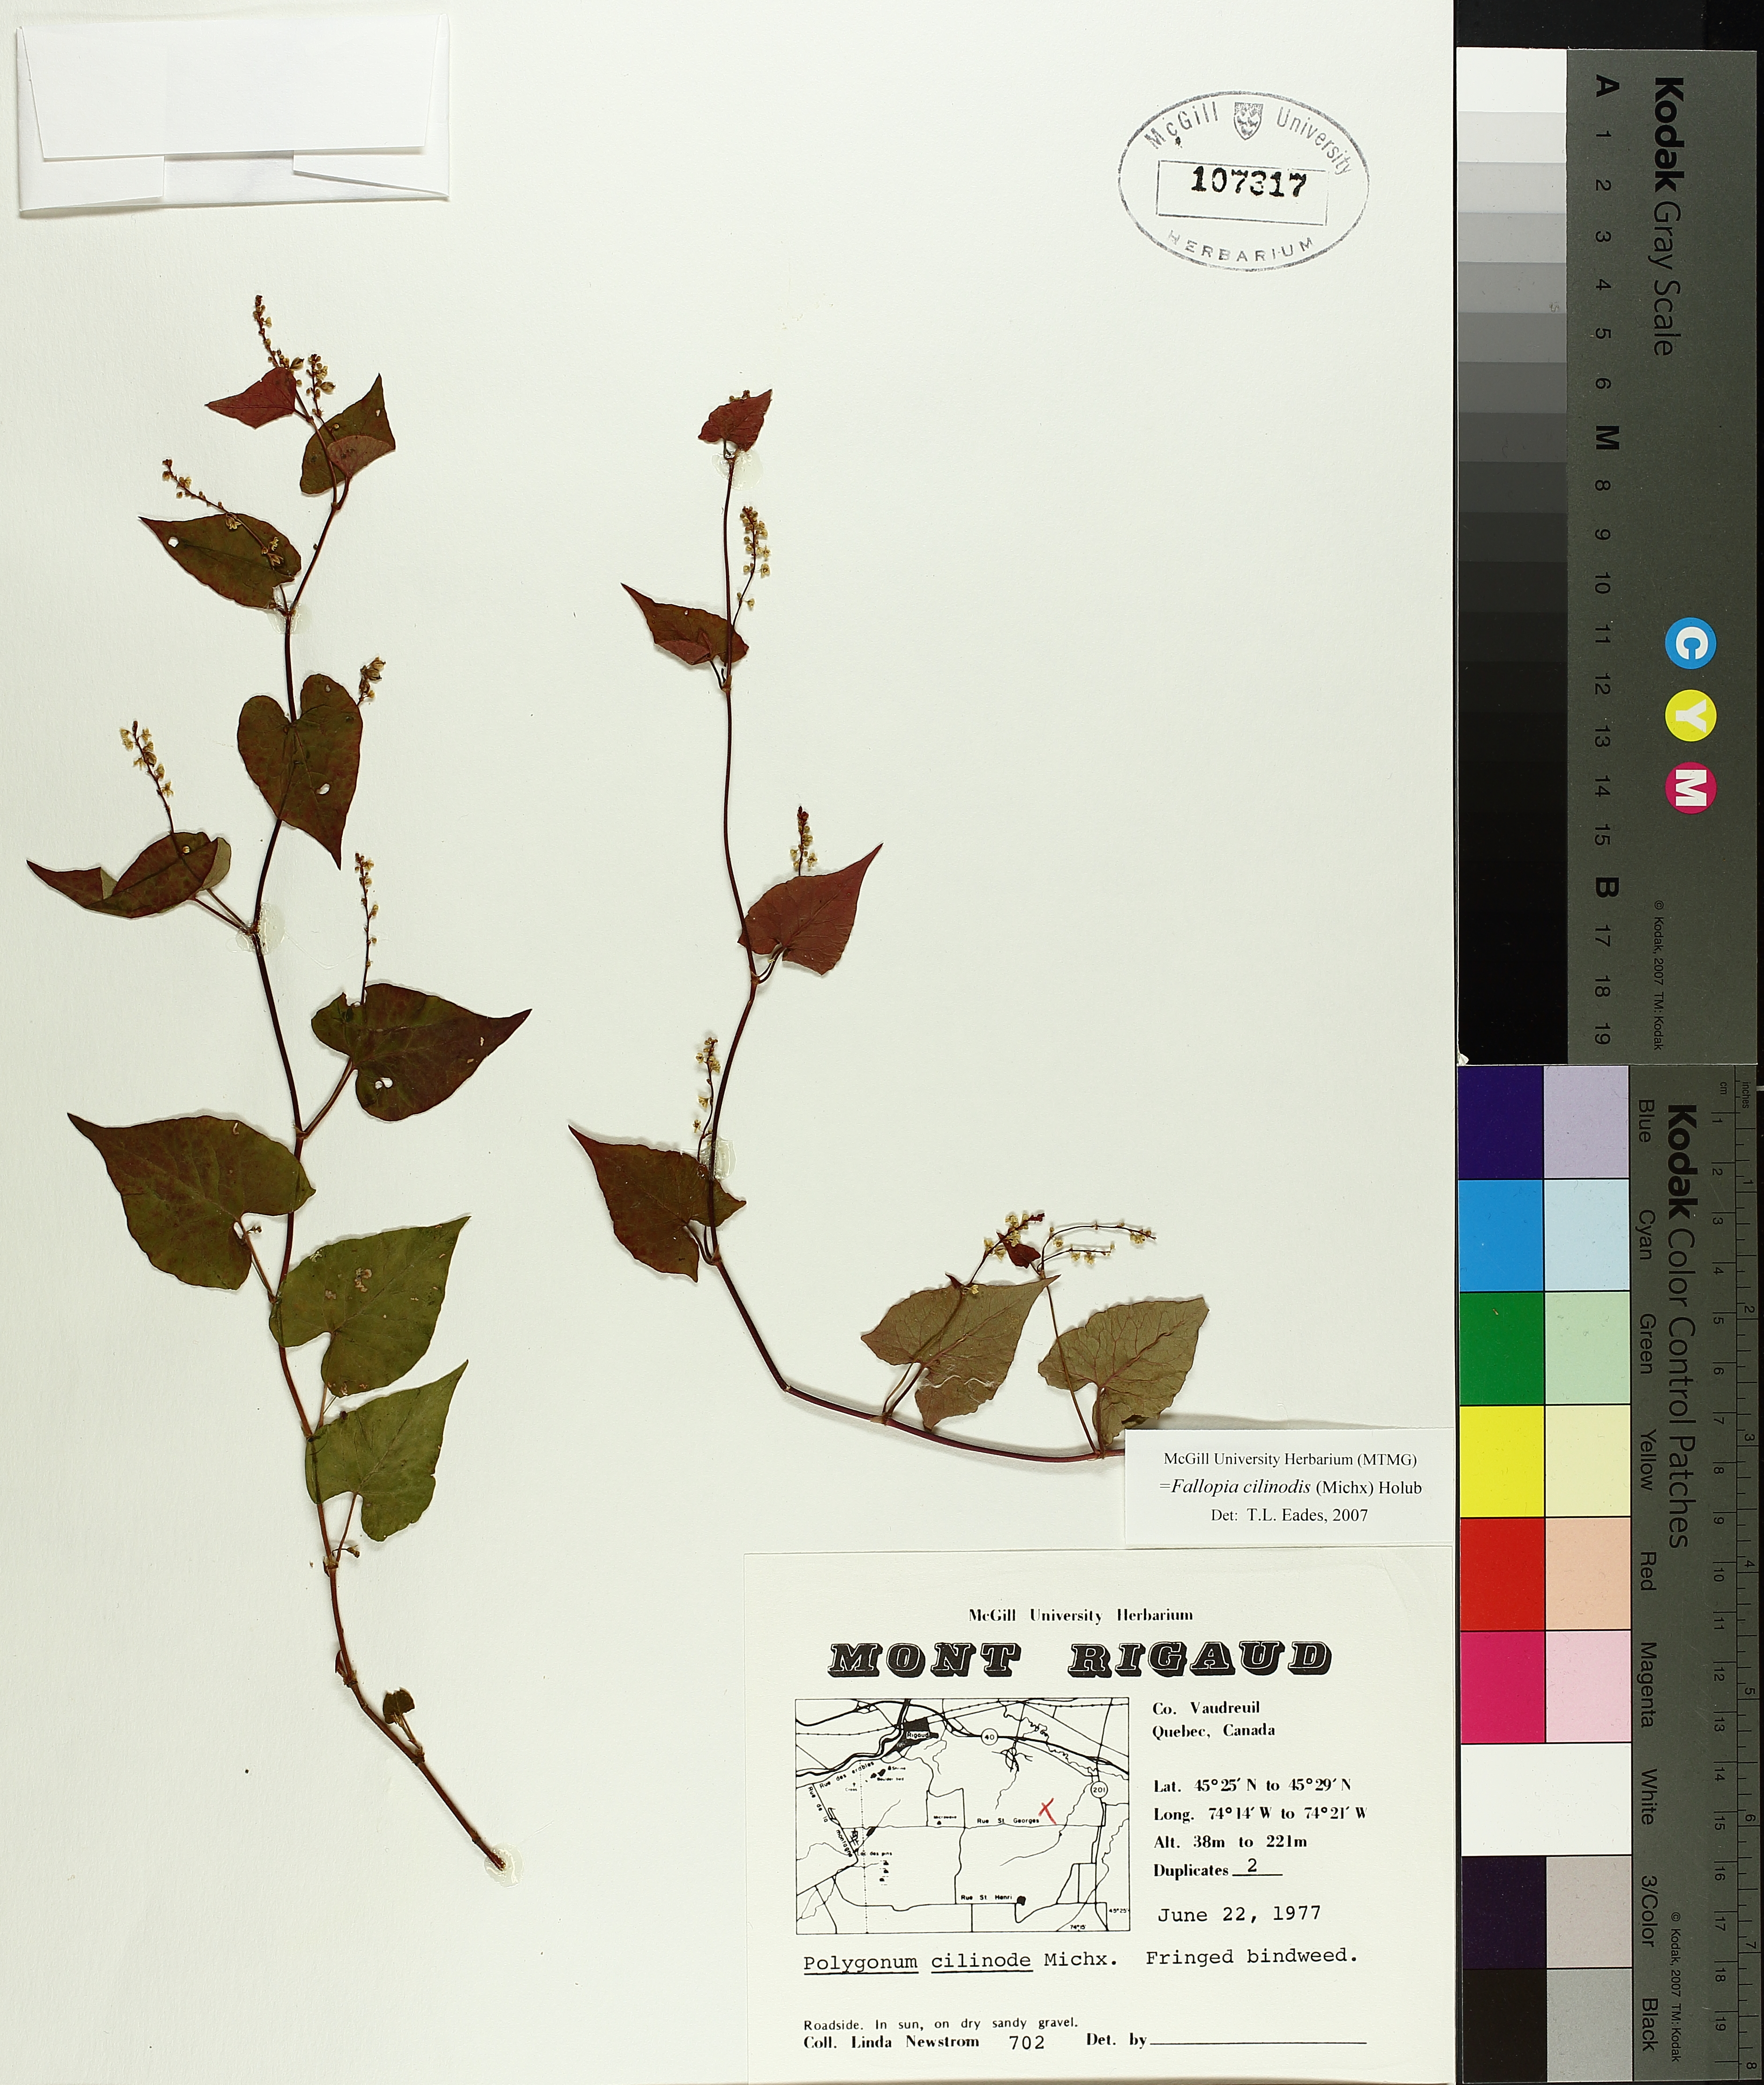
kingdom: Plantae
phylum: Tracheophyta
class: Magnoliopsida
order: Caryophyllales
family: Polygonaceae
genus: Parogonum
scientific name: Parogonum ciliinode
